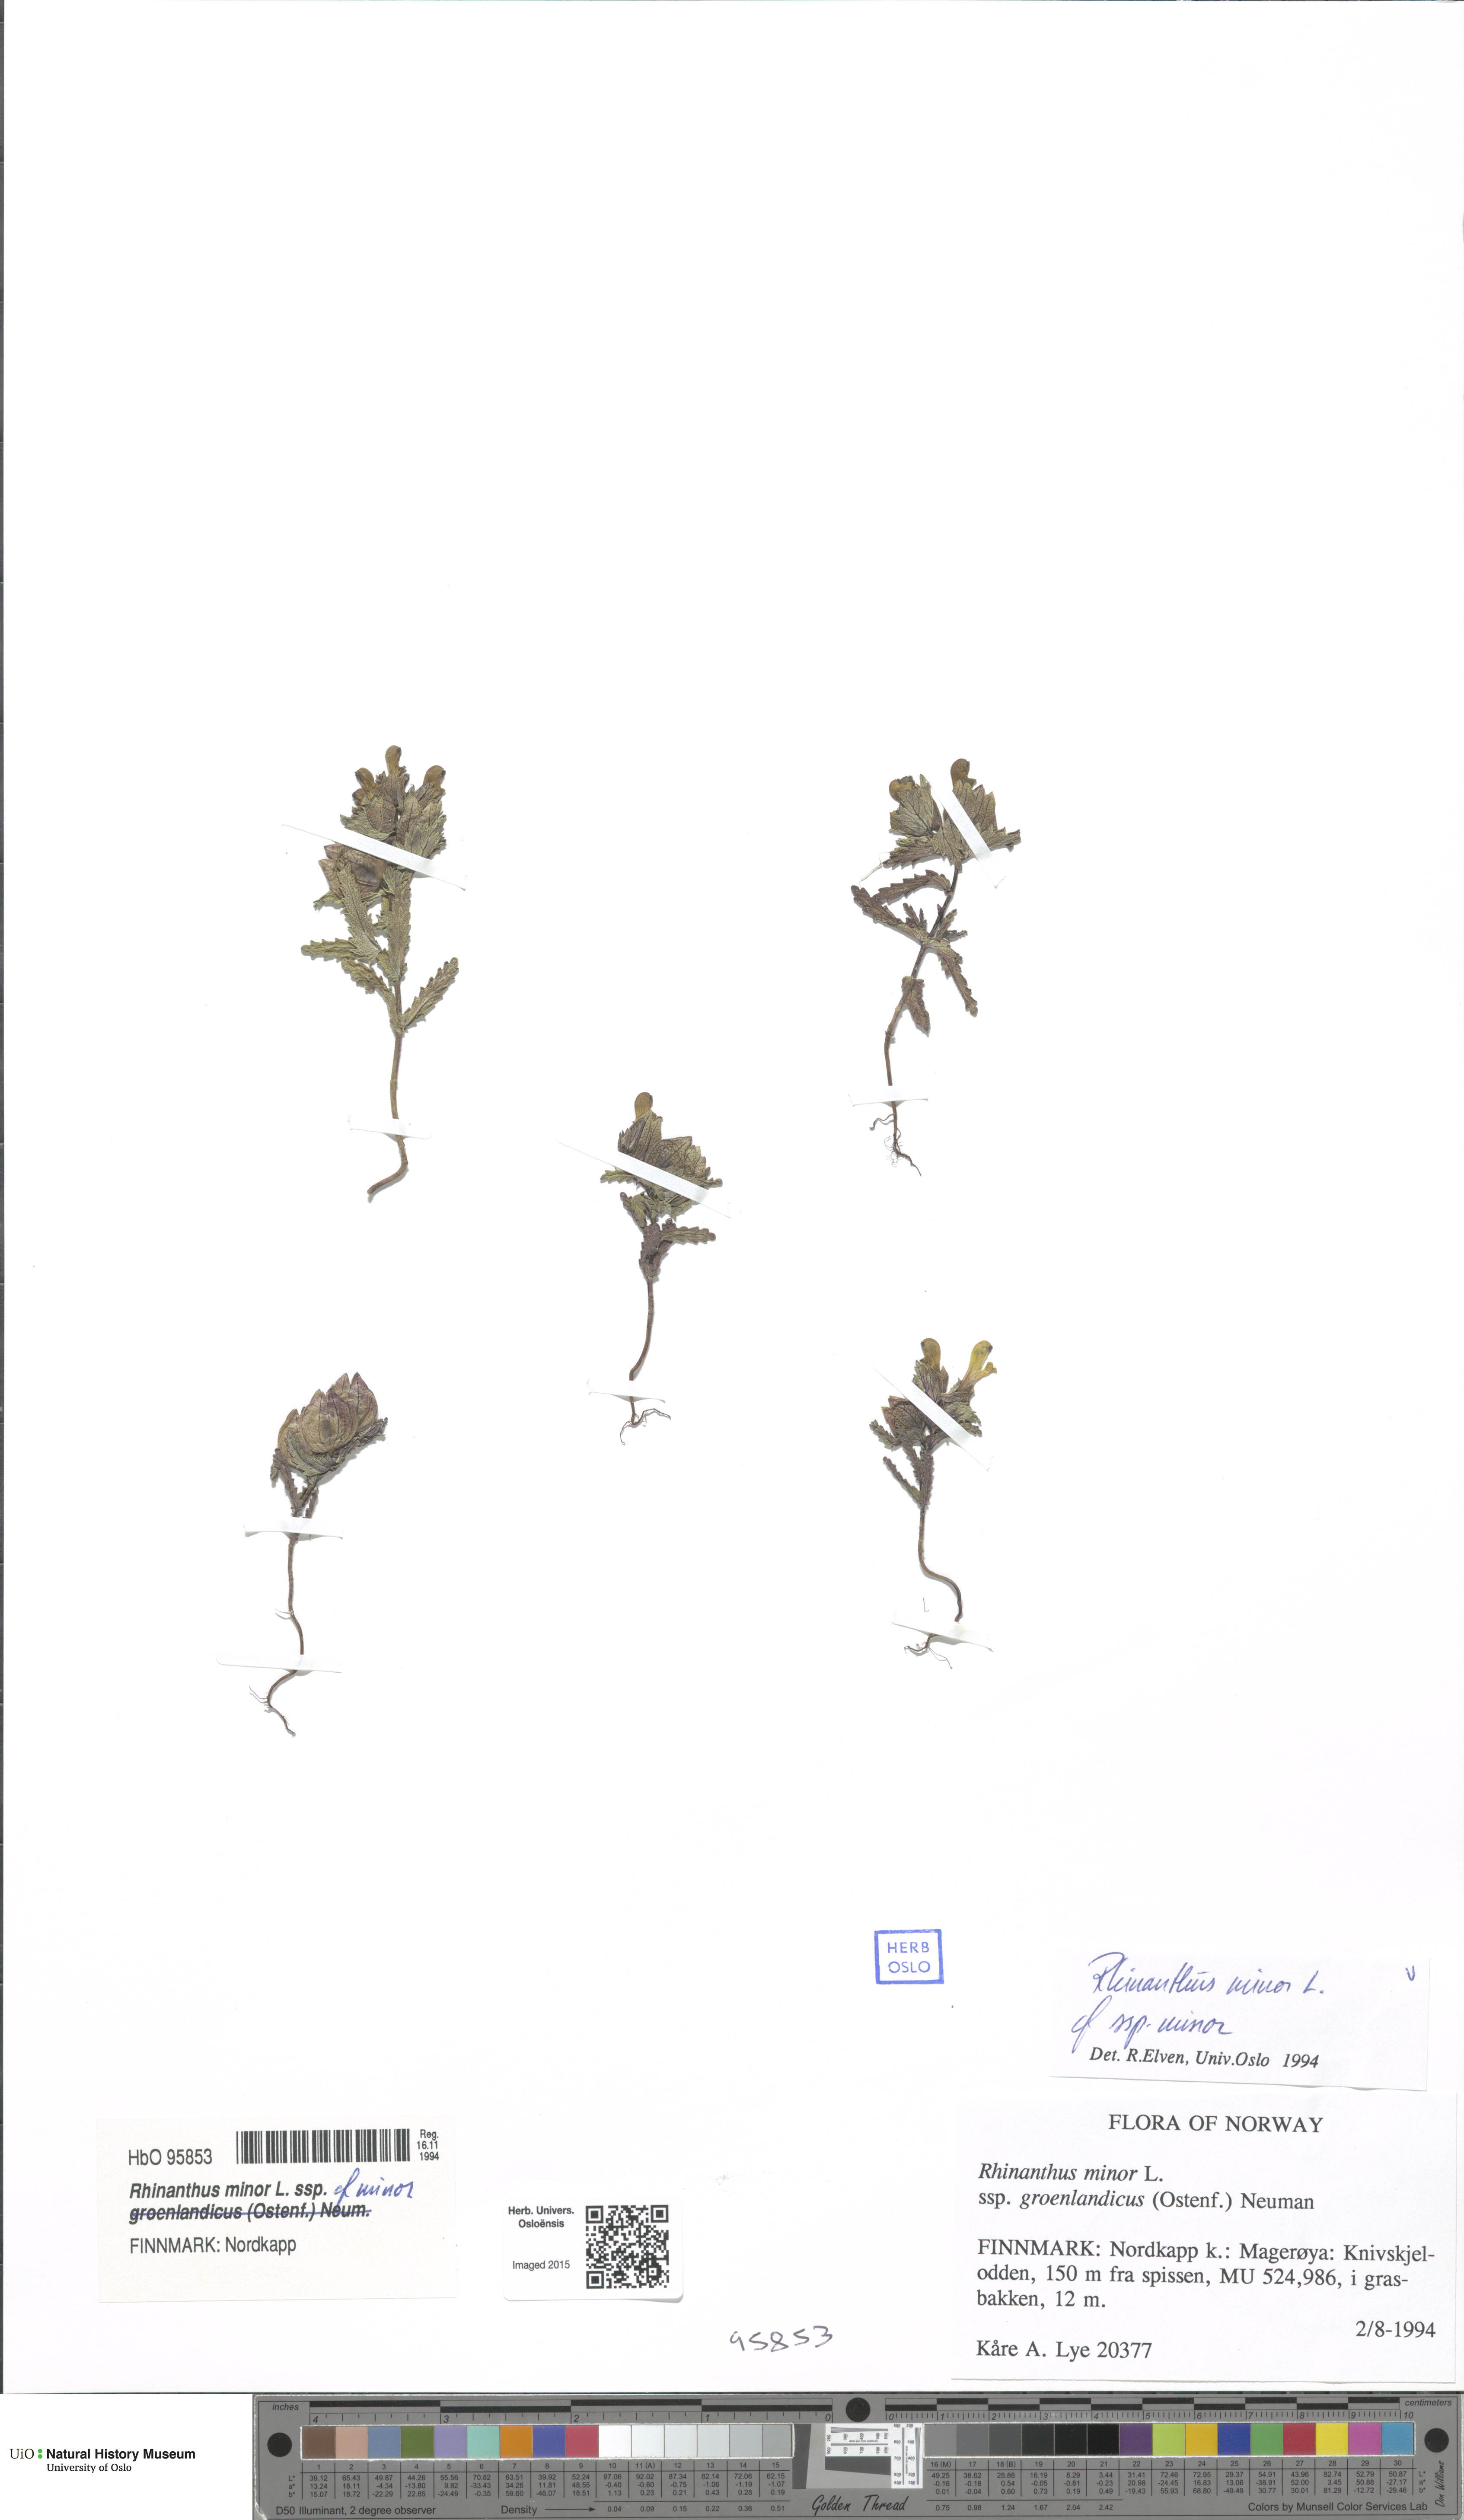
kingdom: Plantae
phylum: Tracheophyta
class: Magnoliopsida
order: Lamiales
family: Orobanchaceae
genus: Rhinanthus
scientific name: Rhinanthus minor
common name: Yellow-rattle
